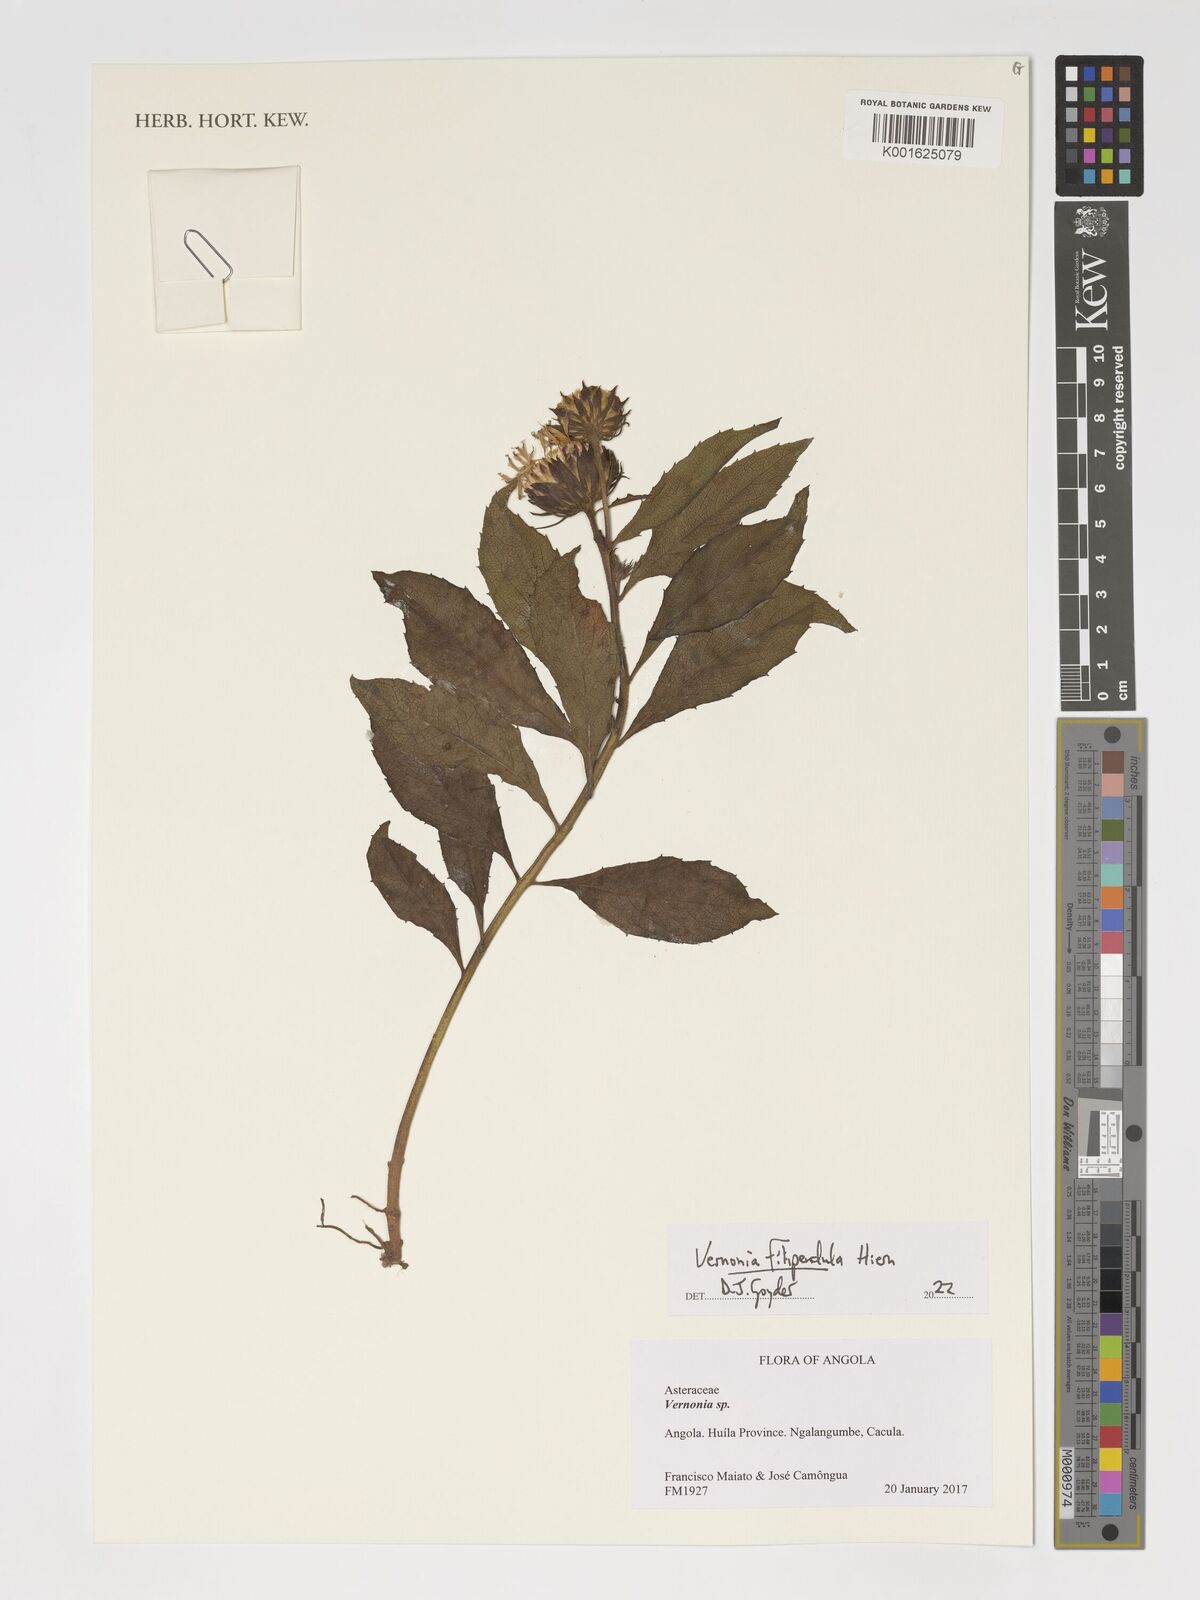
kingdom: Plantae
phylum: Tracheophyta
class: Magnoliopsida
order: Asterales
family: Asteraceae
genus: Baccharoides
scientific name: Baccharoides filipendula
